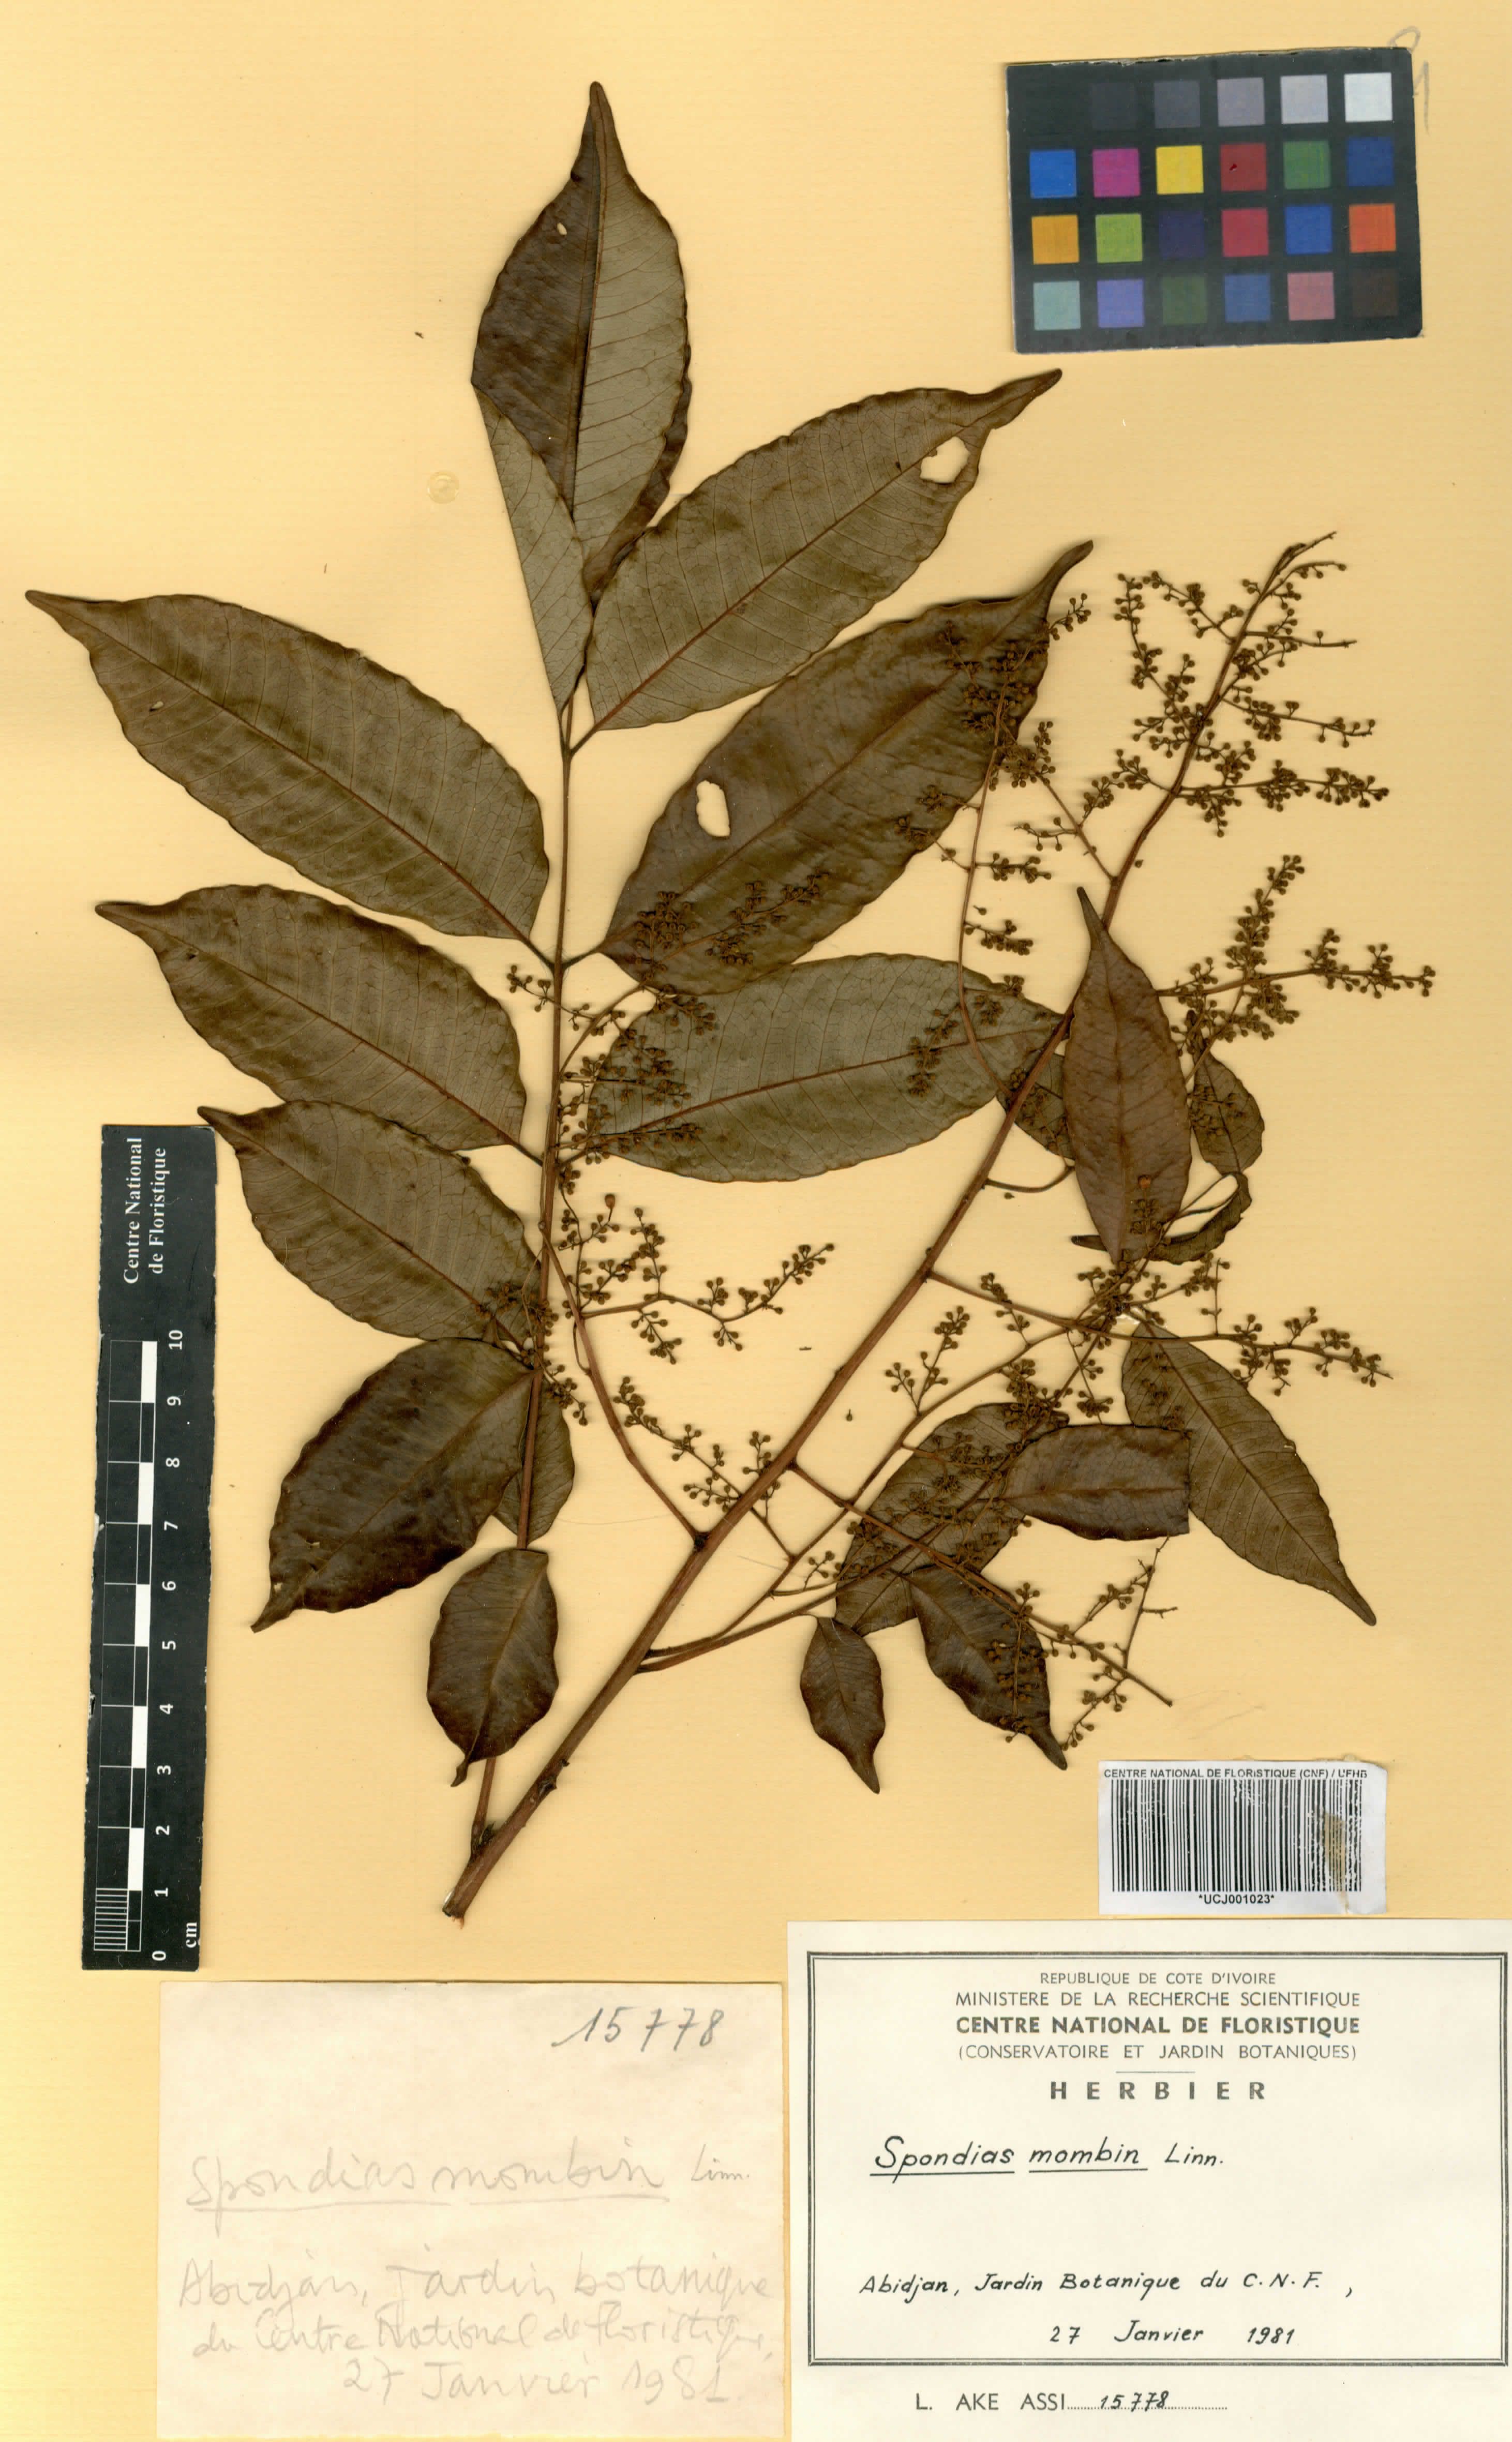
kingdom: Plantae
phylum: Tracheophyta
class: Magnoliopsida
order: Sapindales
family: Anacardiaceae
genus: Spondias
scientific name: Spondias mombin
